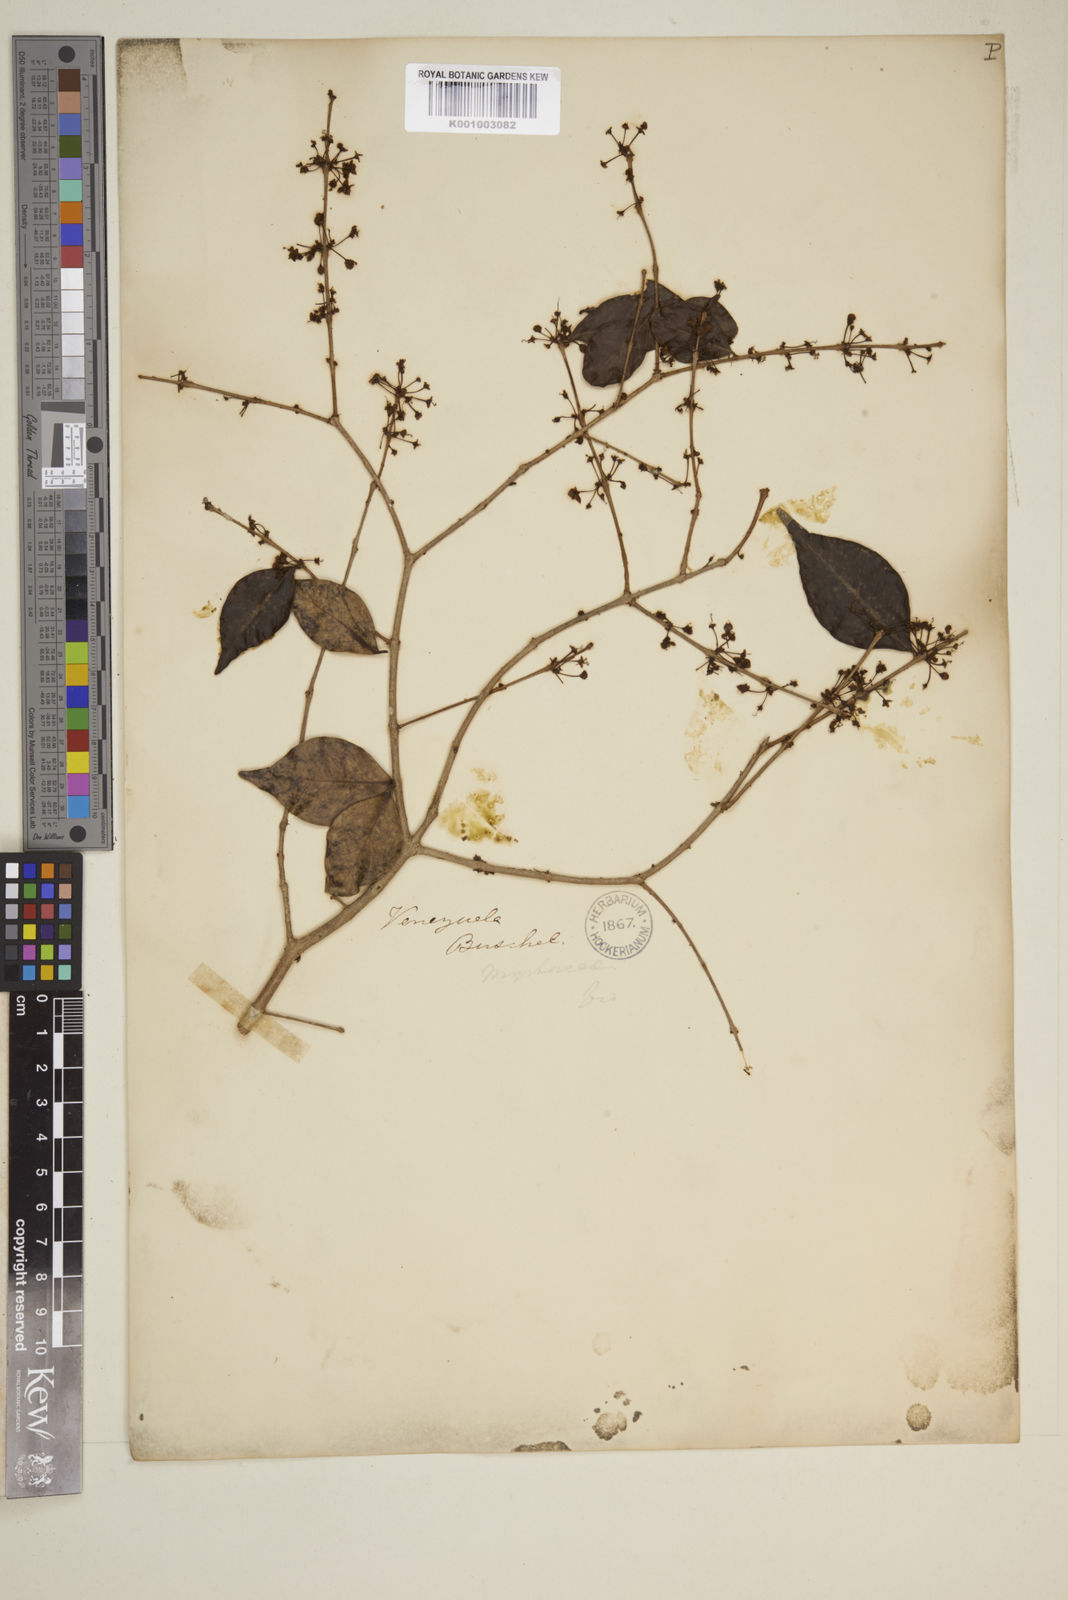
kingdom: Plantae
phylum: Tracheophyta
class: Magnoliopsida
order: Myrtales
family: Myrtaceae
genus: Eugenia
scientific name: Eugenia
